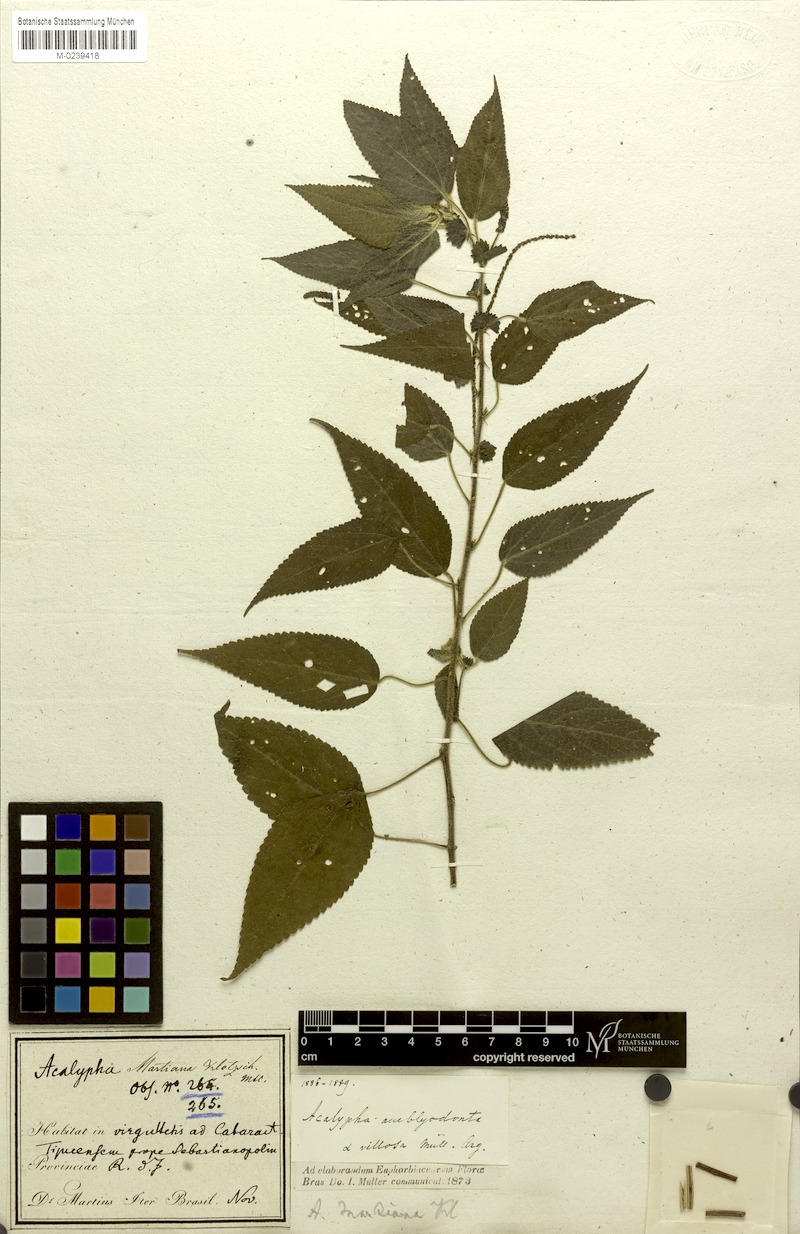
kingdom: Plantae
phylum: Tracheophyta
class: Magnoliopsida
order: Malpighiales
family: Euphorbiaceae
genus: Acalypha
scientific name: Acalypha amblyodonta
